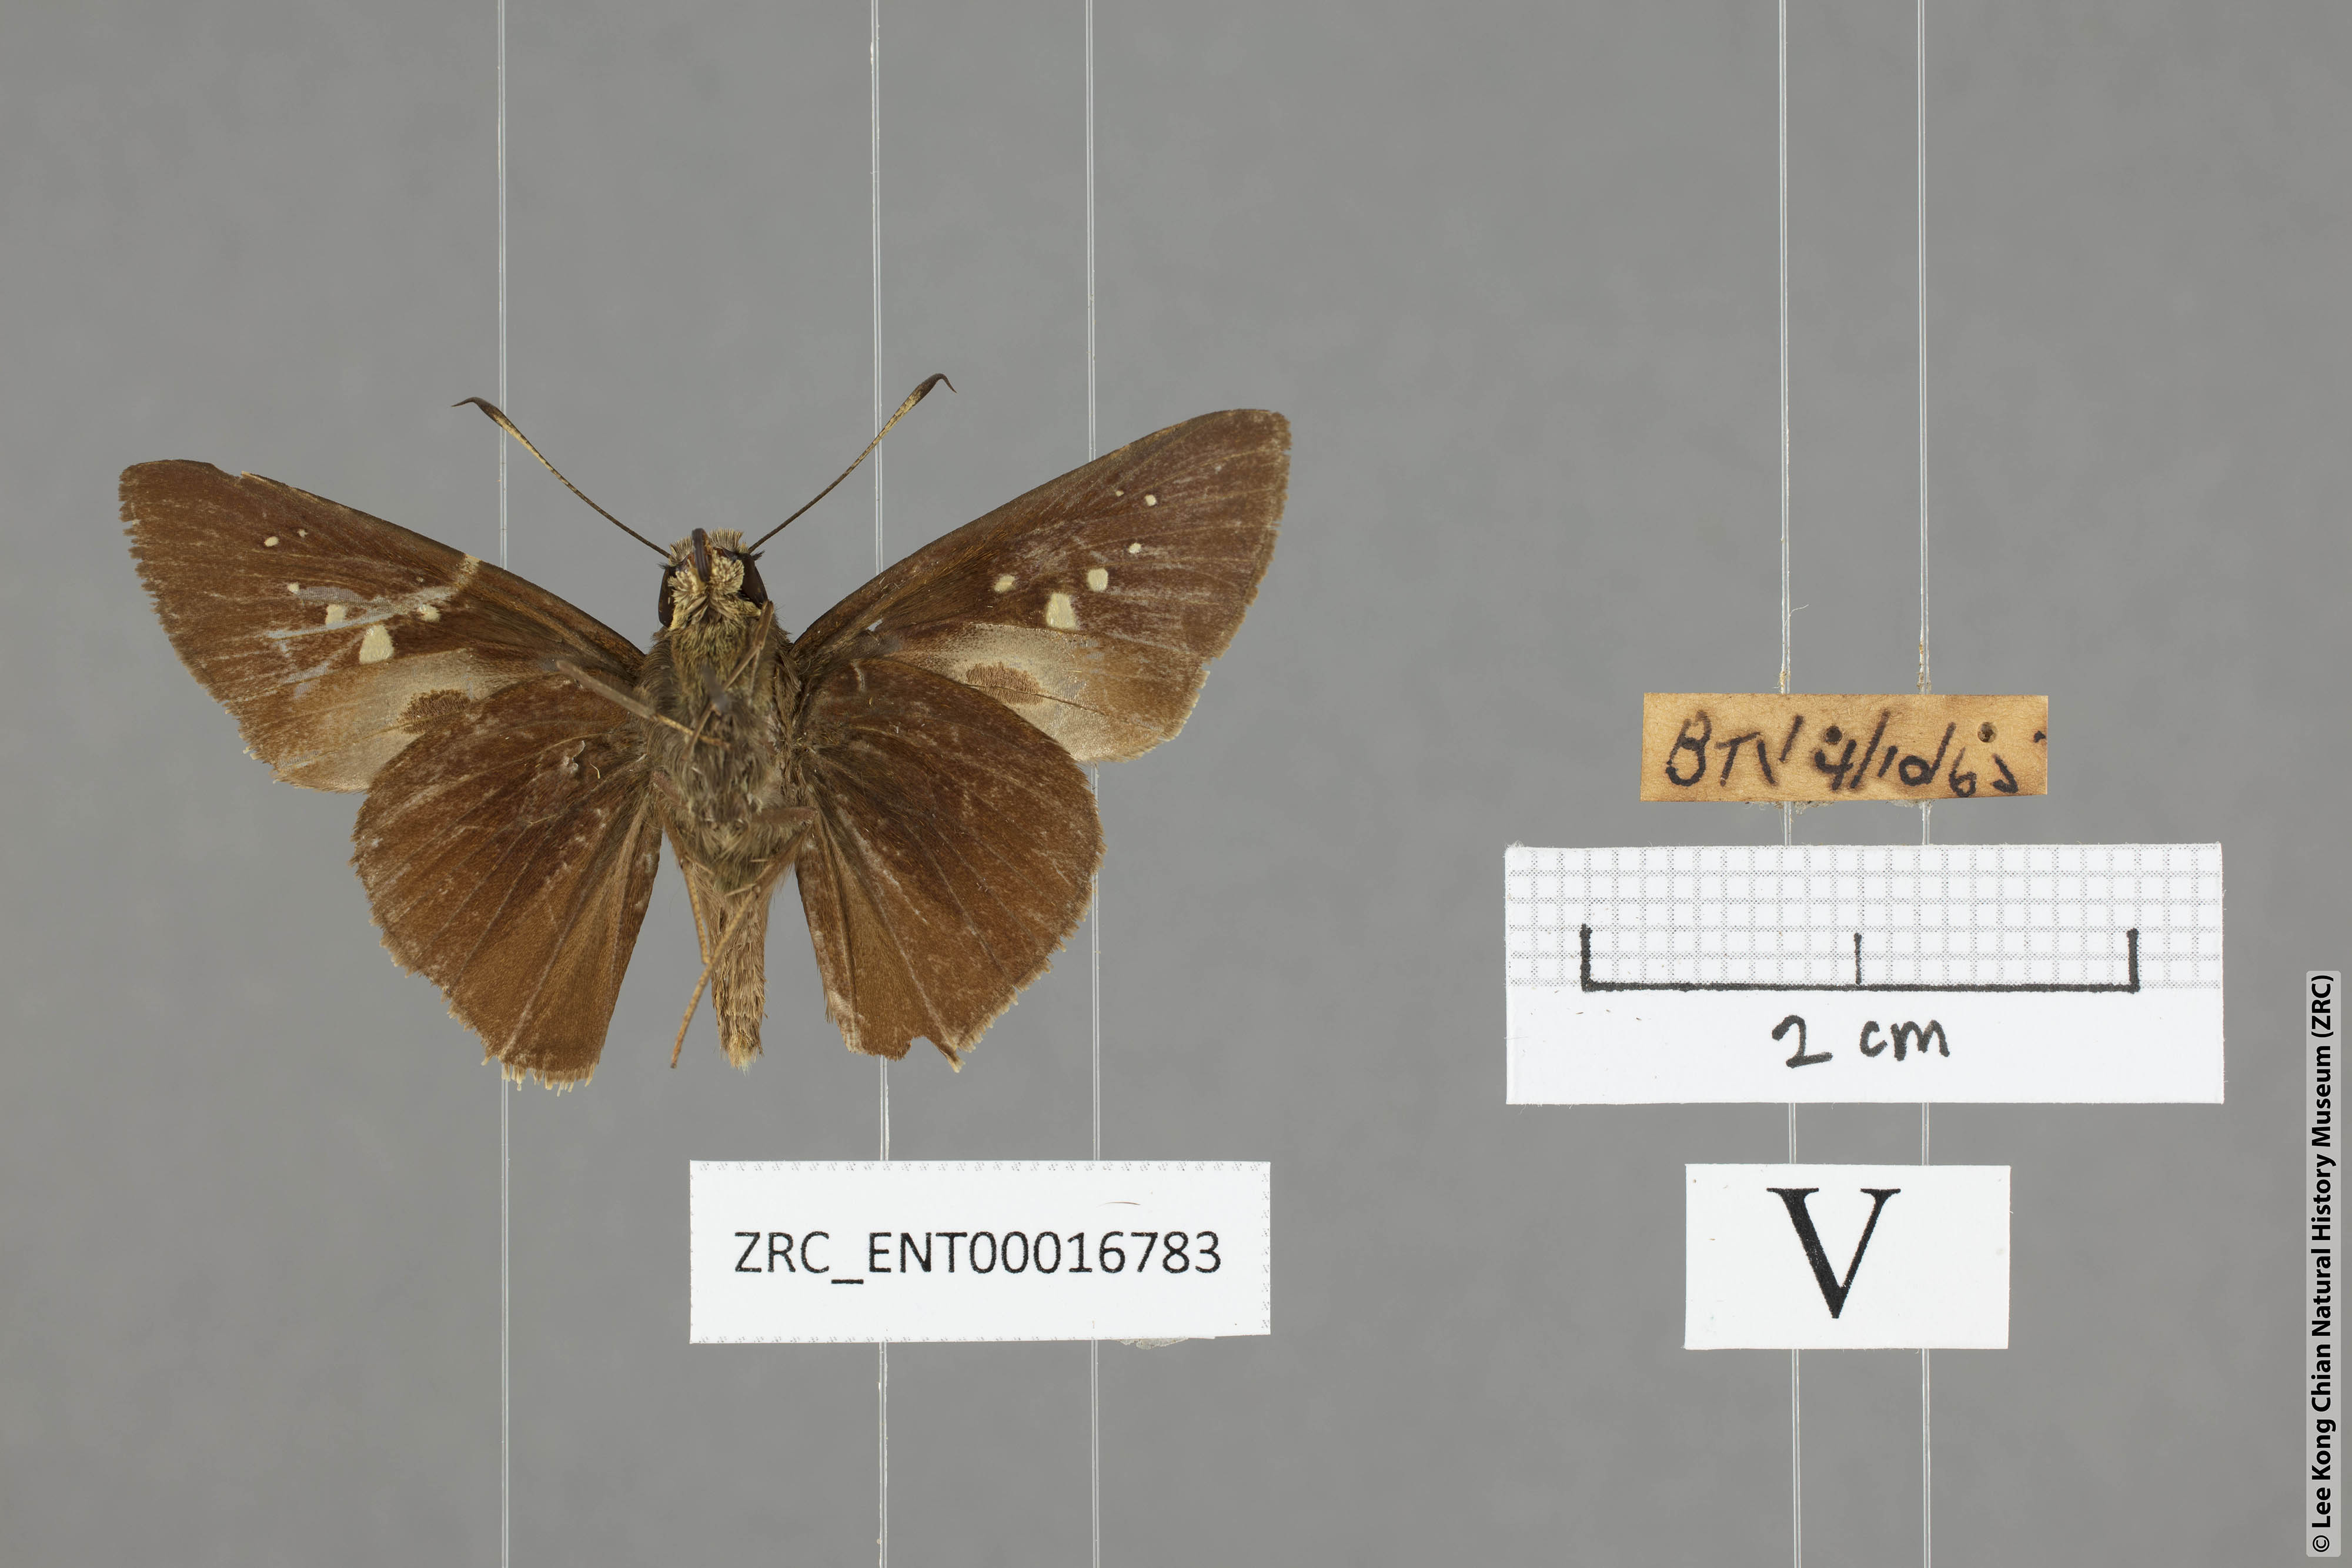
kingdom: Animalia
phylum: Arthropoda
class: Insecta
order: Lepidoptera
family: Hesperiidae
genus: Baoris
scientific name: Baoris farri
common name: Paintbrush swift
